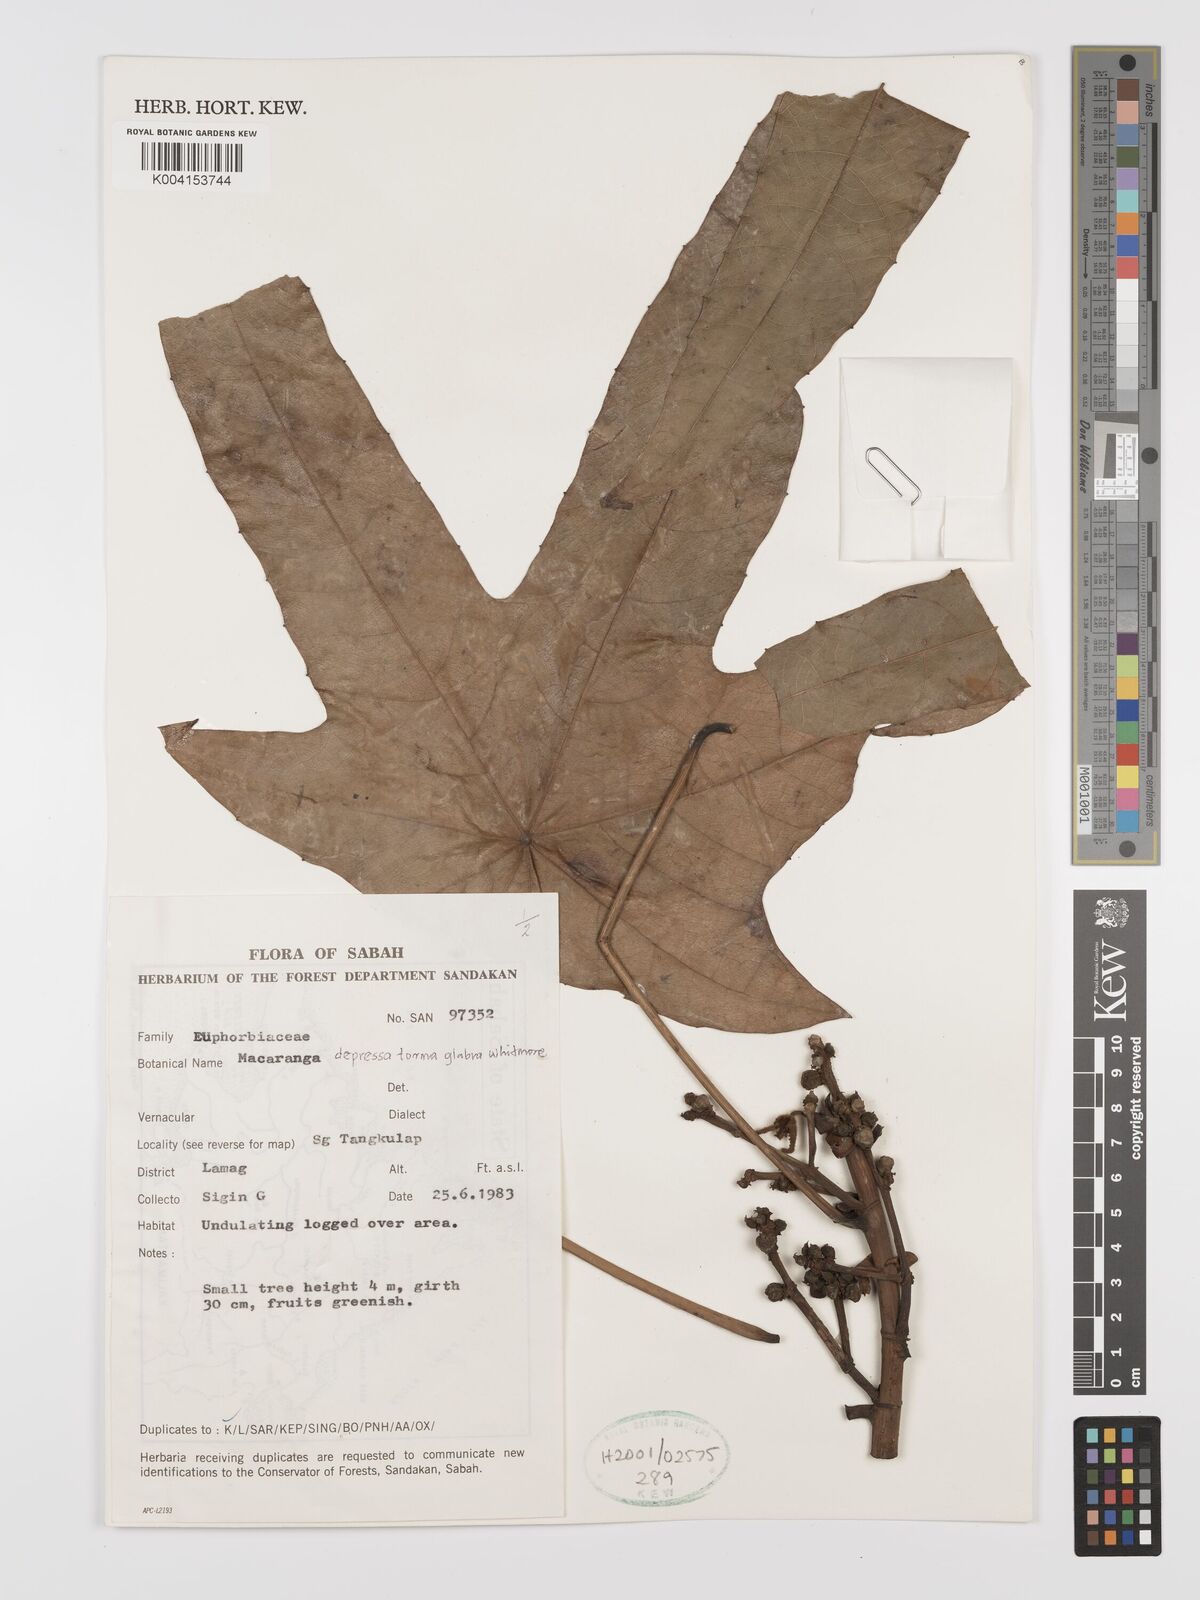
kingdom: Plantae
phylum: Tracheophyta
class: Magnoliopsida
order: Malpighiales
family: Euphorbiaceae
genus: Macaranga
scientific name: Macaranga depressa
